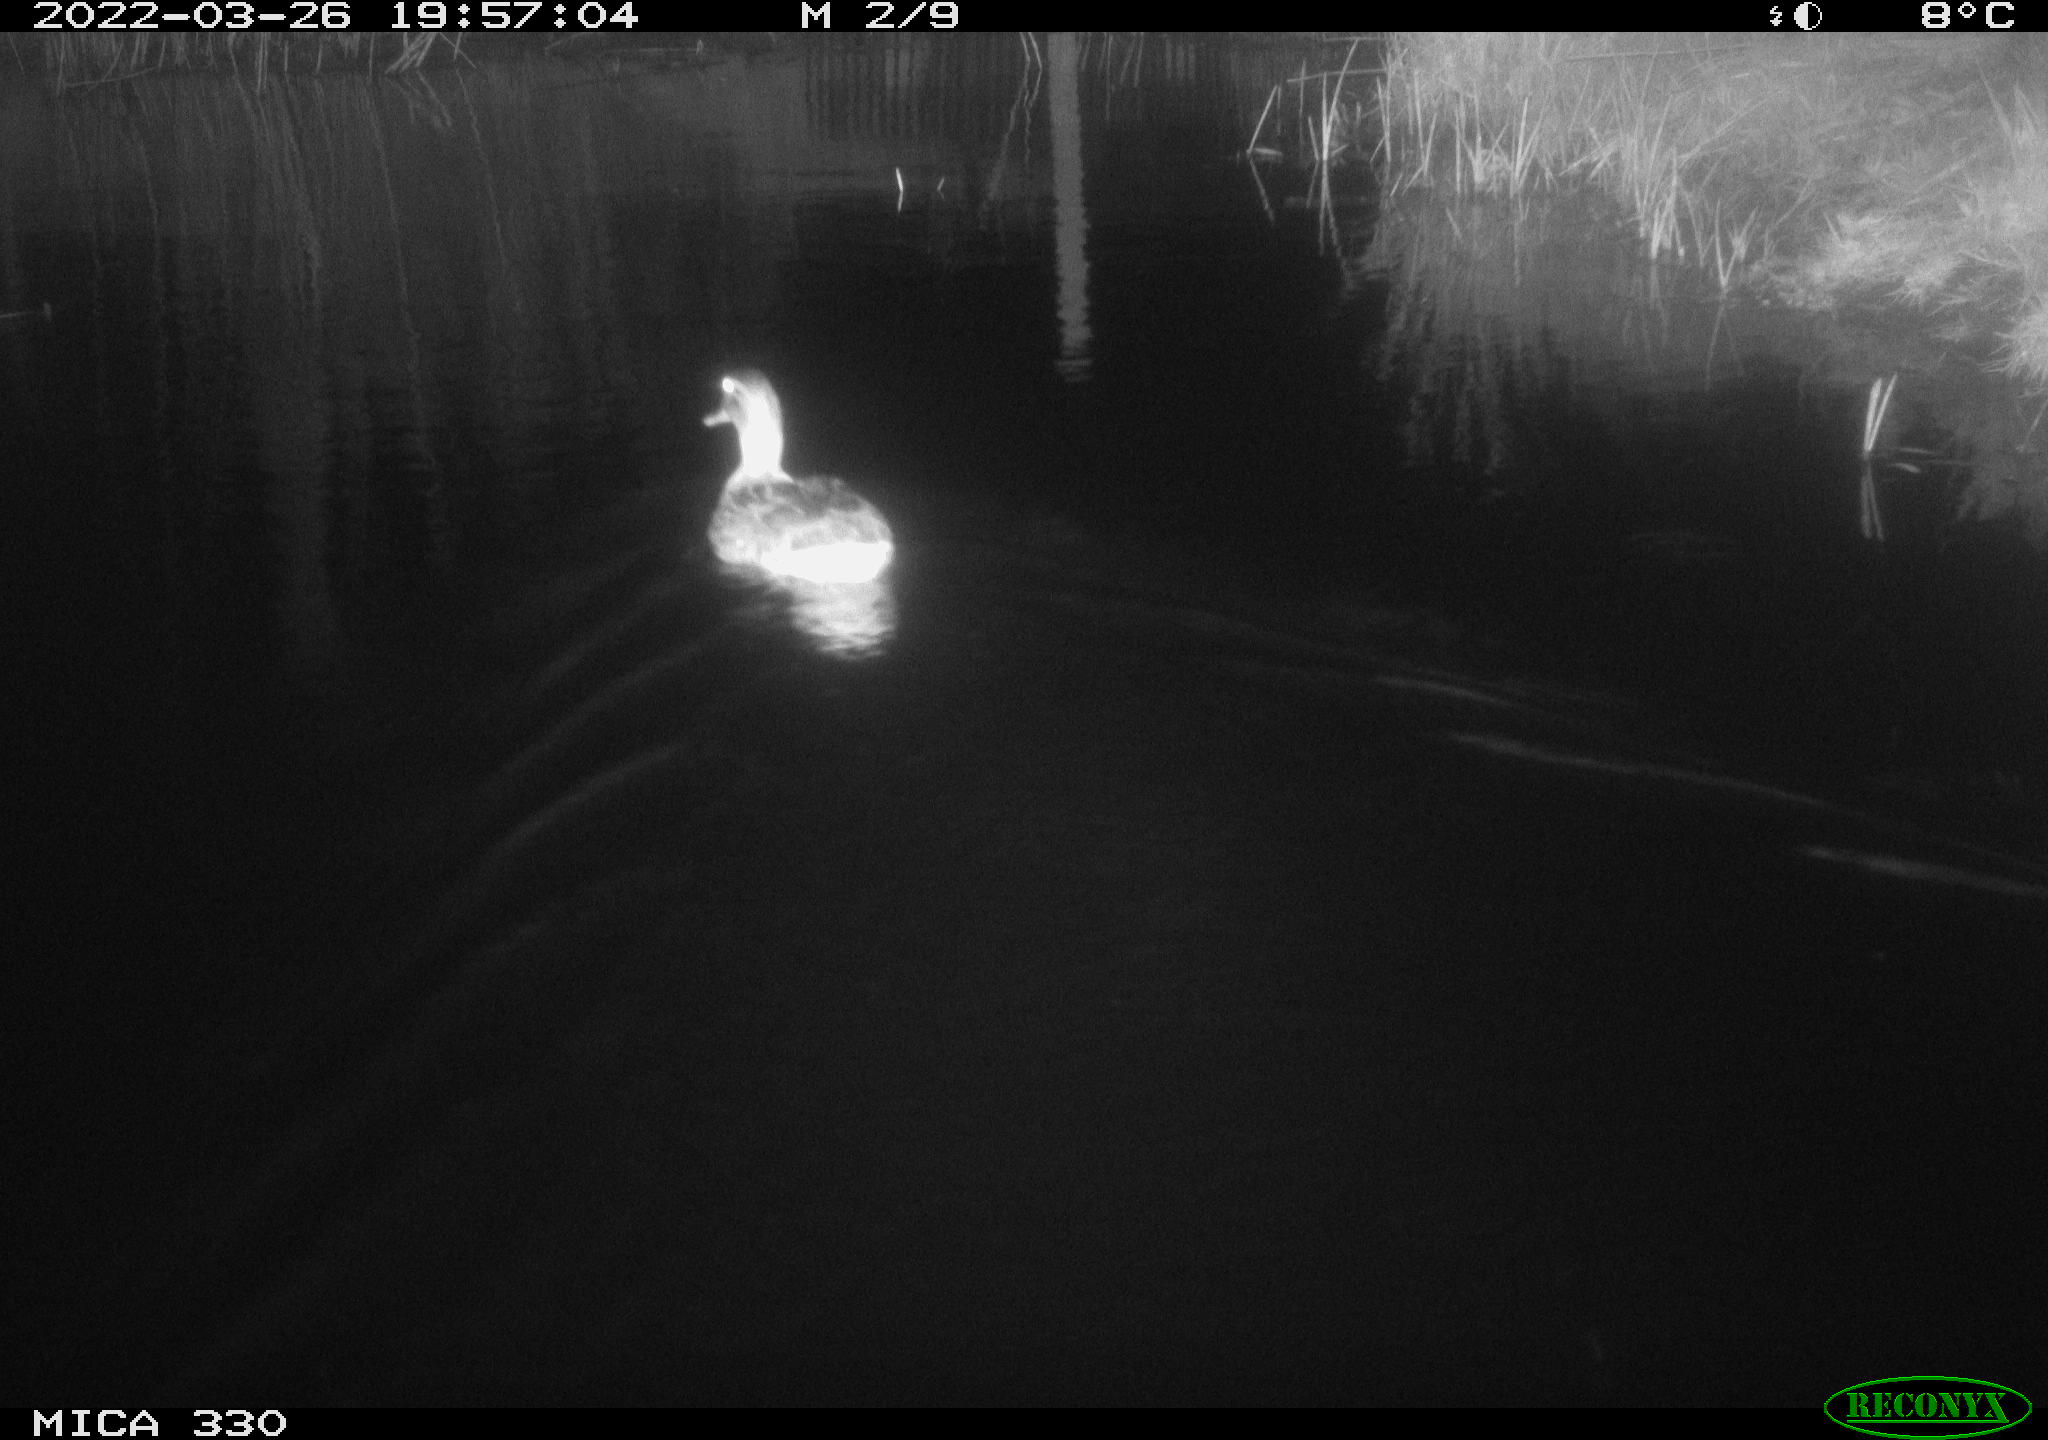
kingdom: Animalia
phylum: Chordata
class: Aves
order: Anseriformes
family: Anatidae
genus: Anas
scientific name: Anas platyrhynchos
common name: Mallard
